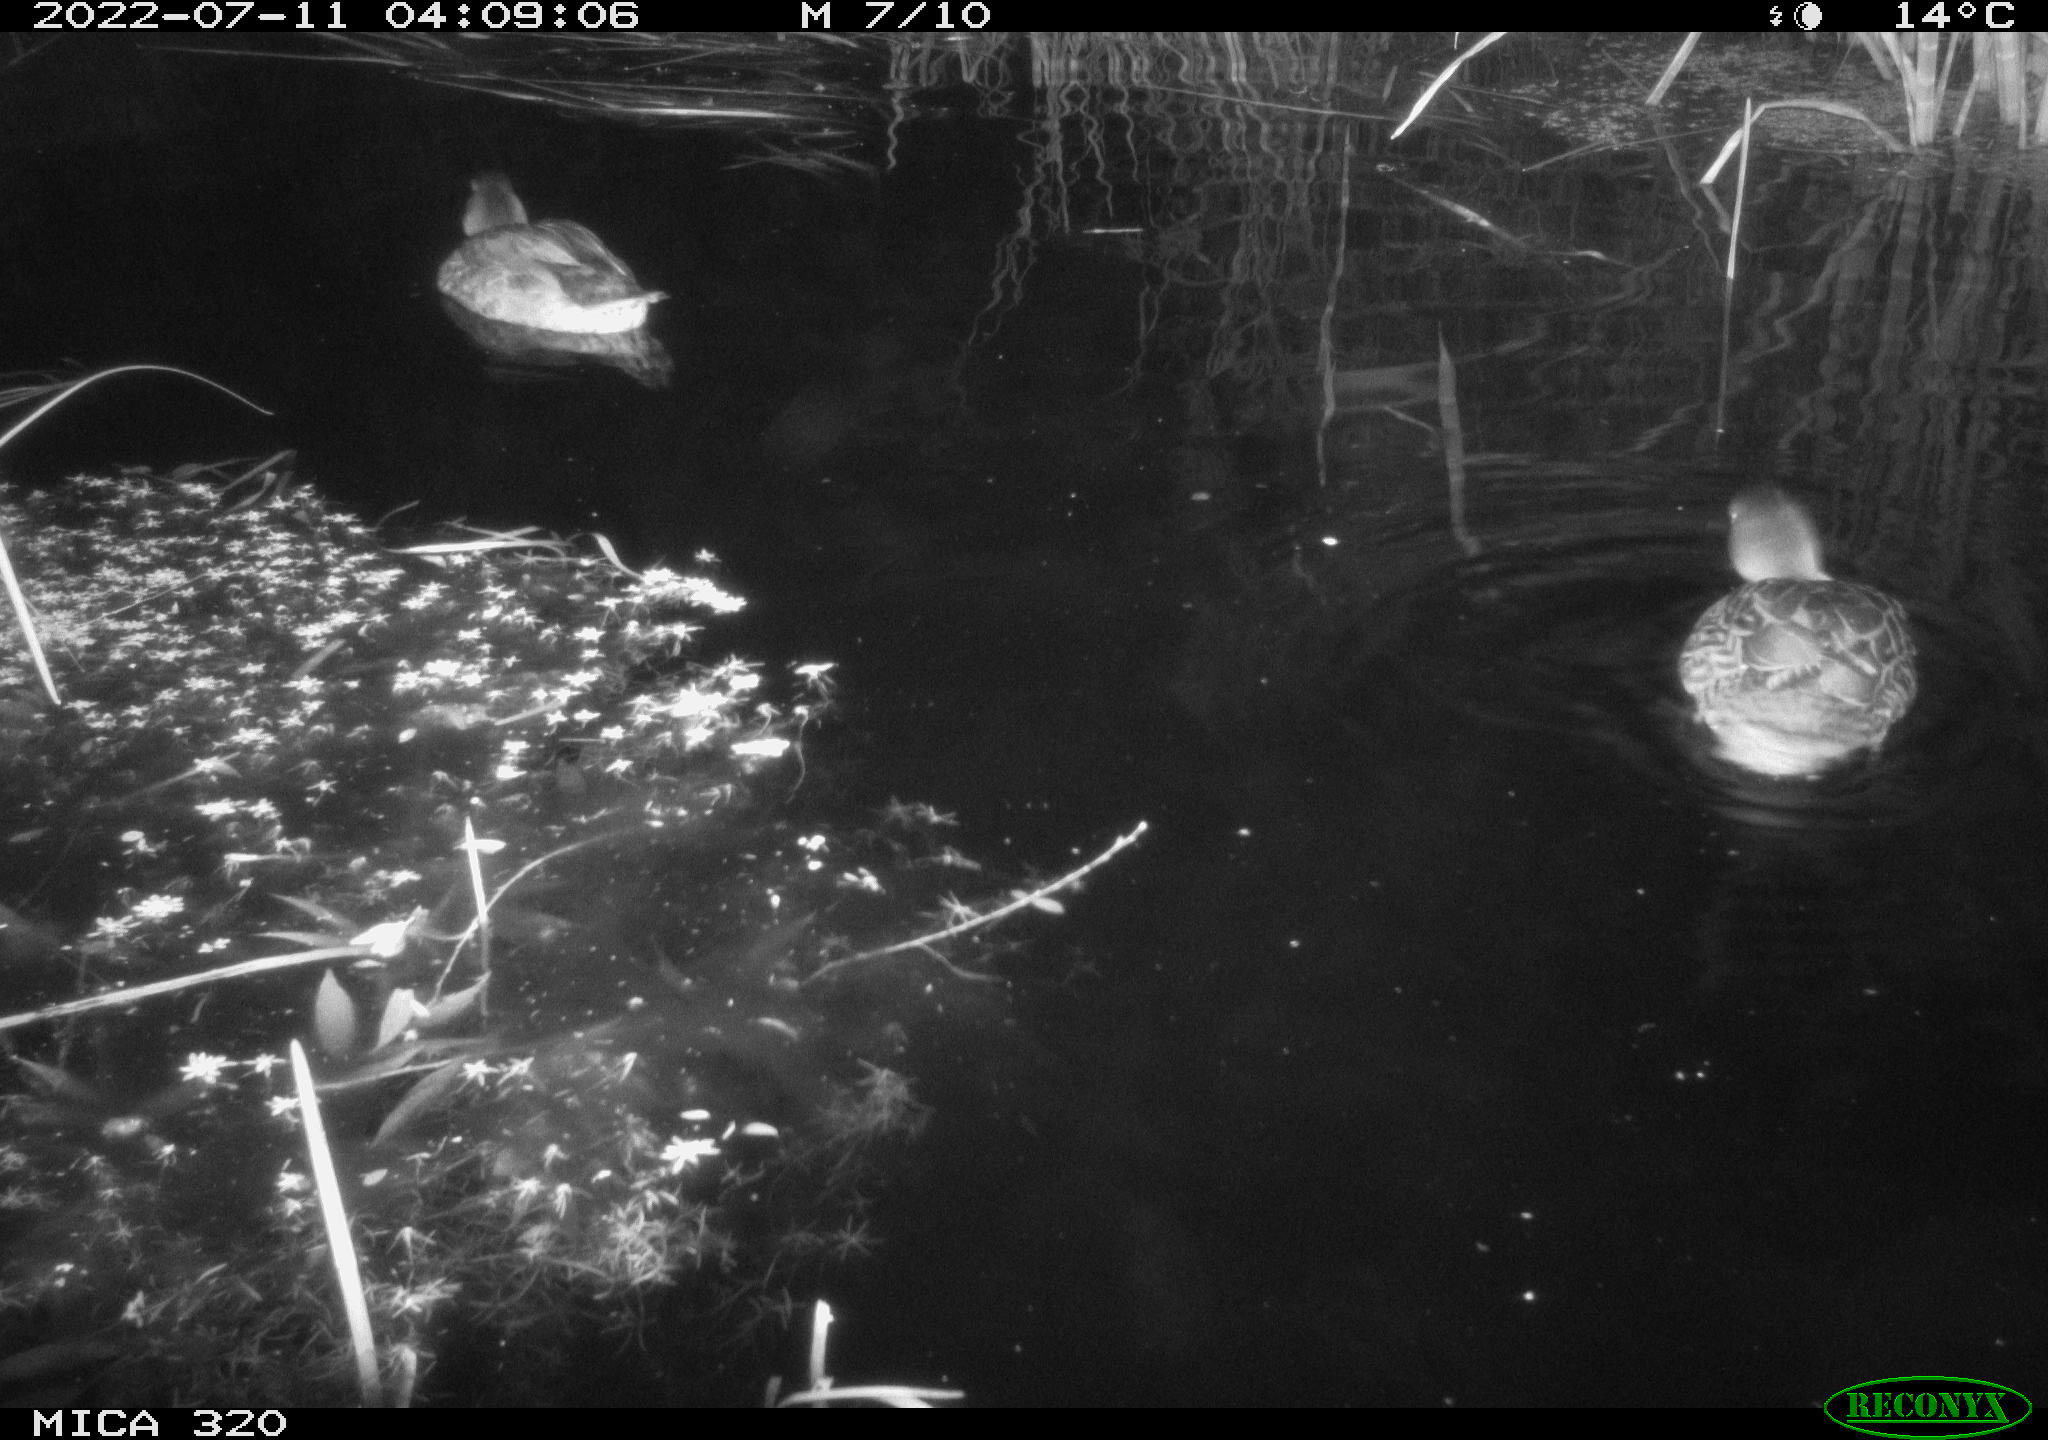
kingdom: Animalia
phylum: Chordata
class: Aves
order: Anseriformes
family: Anatidae
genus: Mareca
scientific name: Mareca strepera
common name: Gadwall
